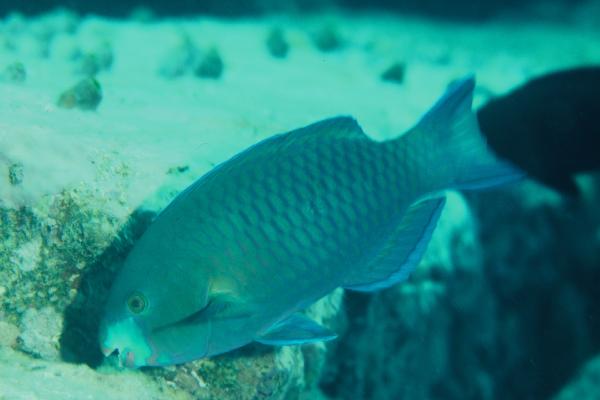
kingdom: Animalia
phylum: Chordata
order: Perciformes
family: Scaridae
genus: Scarus
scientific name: Scarus viridifucatus
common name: Green-snout parrotfish
